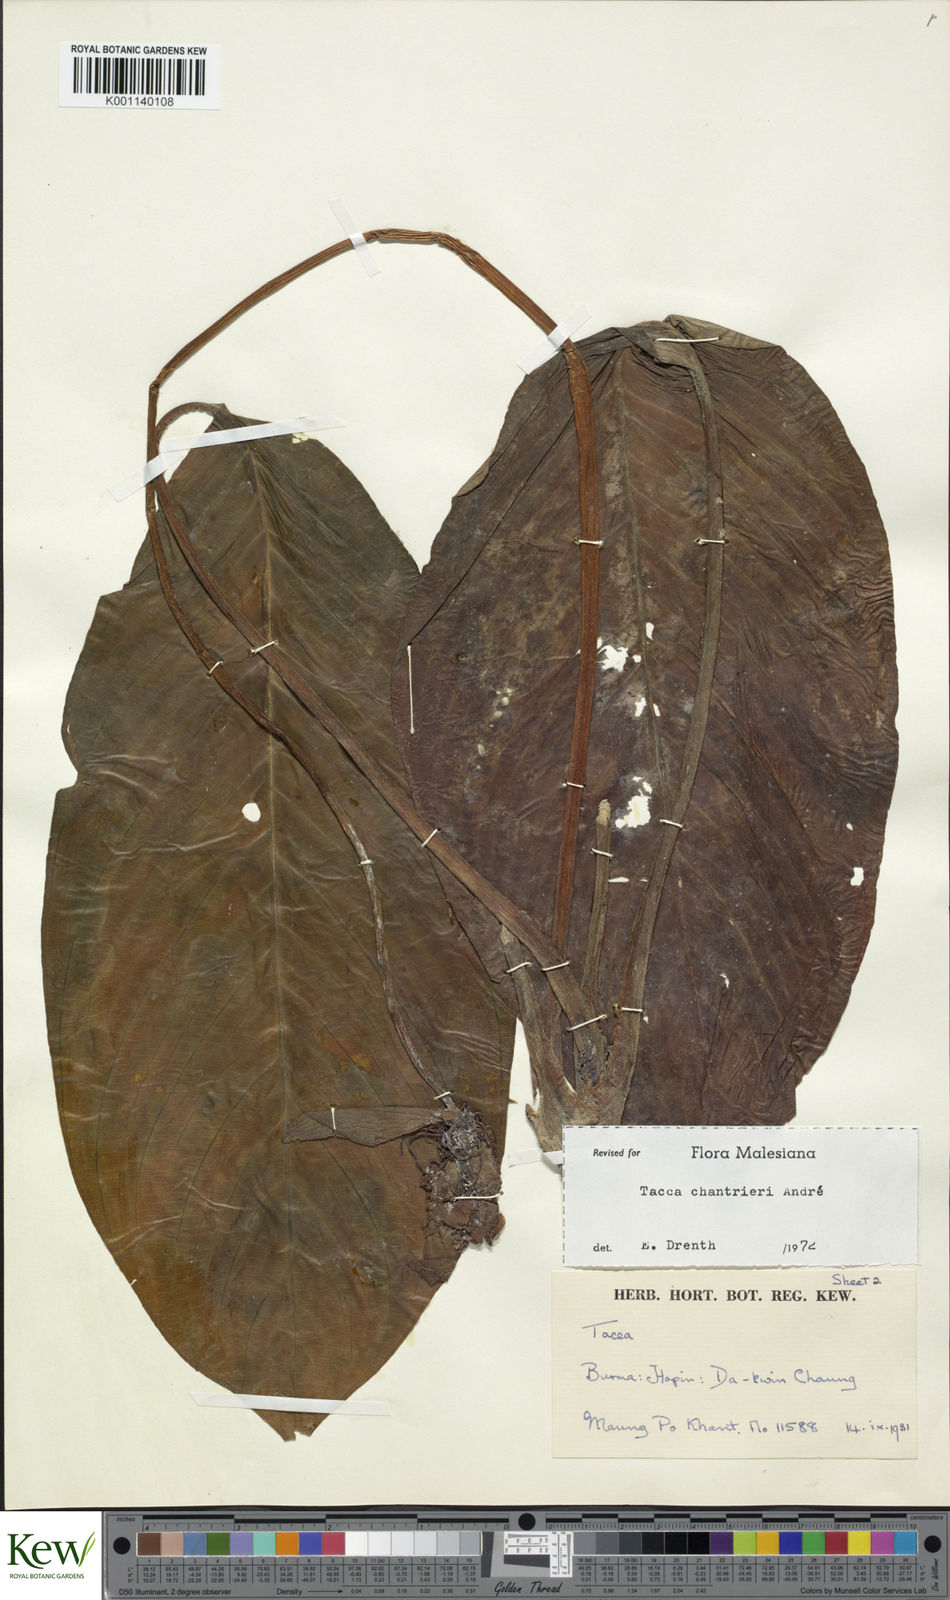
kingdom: Plantae
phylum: Tracheophyta
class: Liliopsida
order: Dioscoreales
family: Dioscoreaceae
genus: Tacca
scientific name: Tacca
